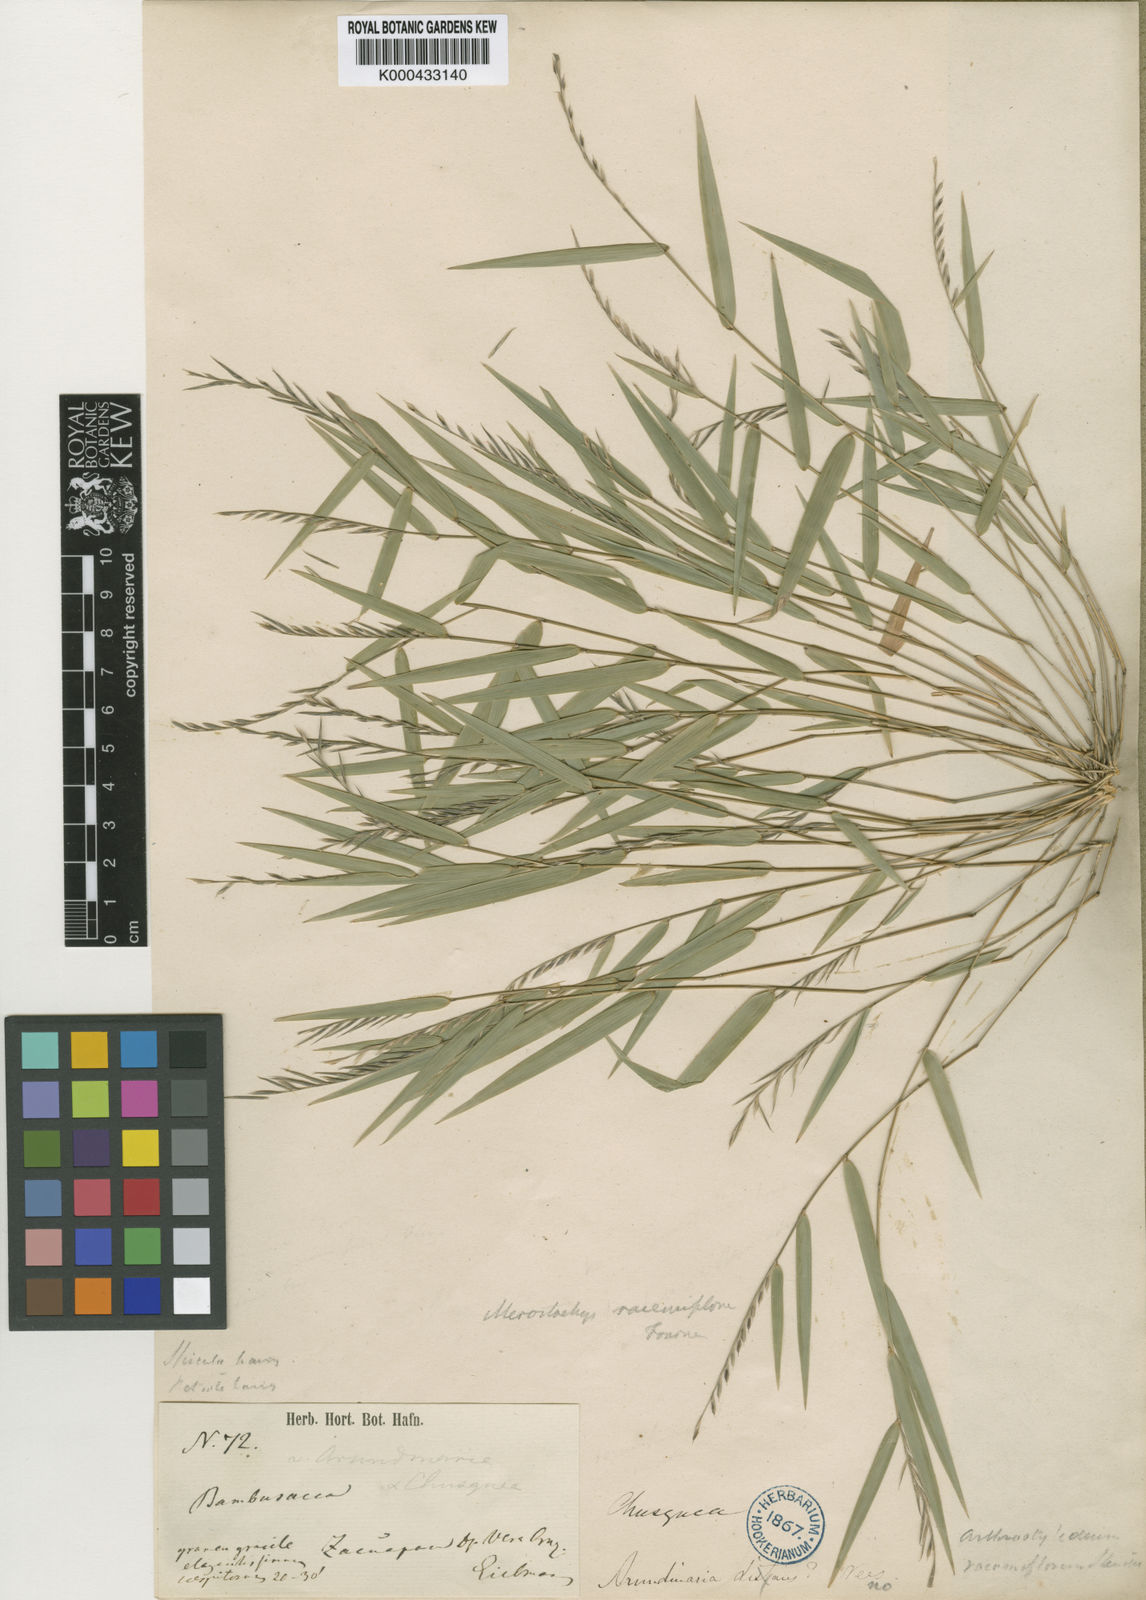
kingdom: Plantae
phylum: Tracheophyta
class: Liliopsida
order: Poales
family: Poaceae
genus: Rhipidocladum
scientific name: Rhipidocladum racemiflorum
